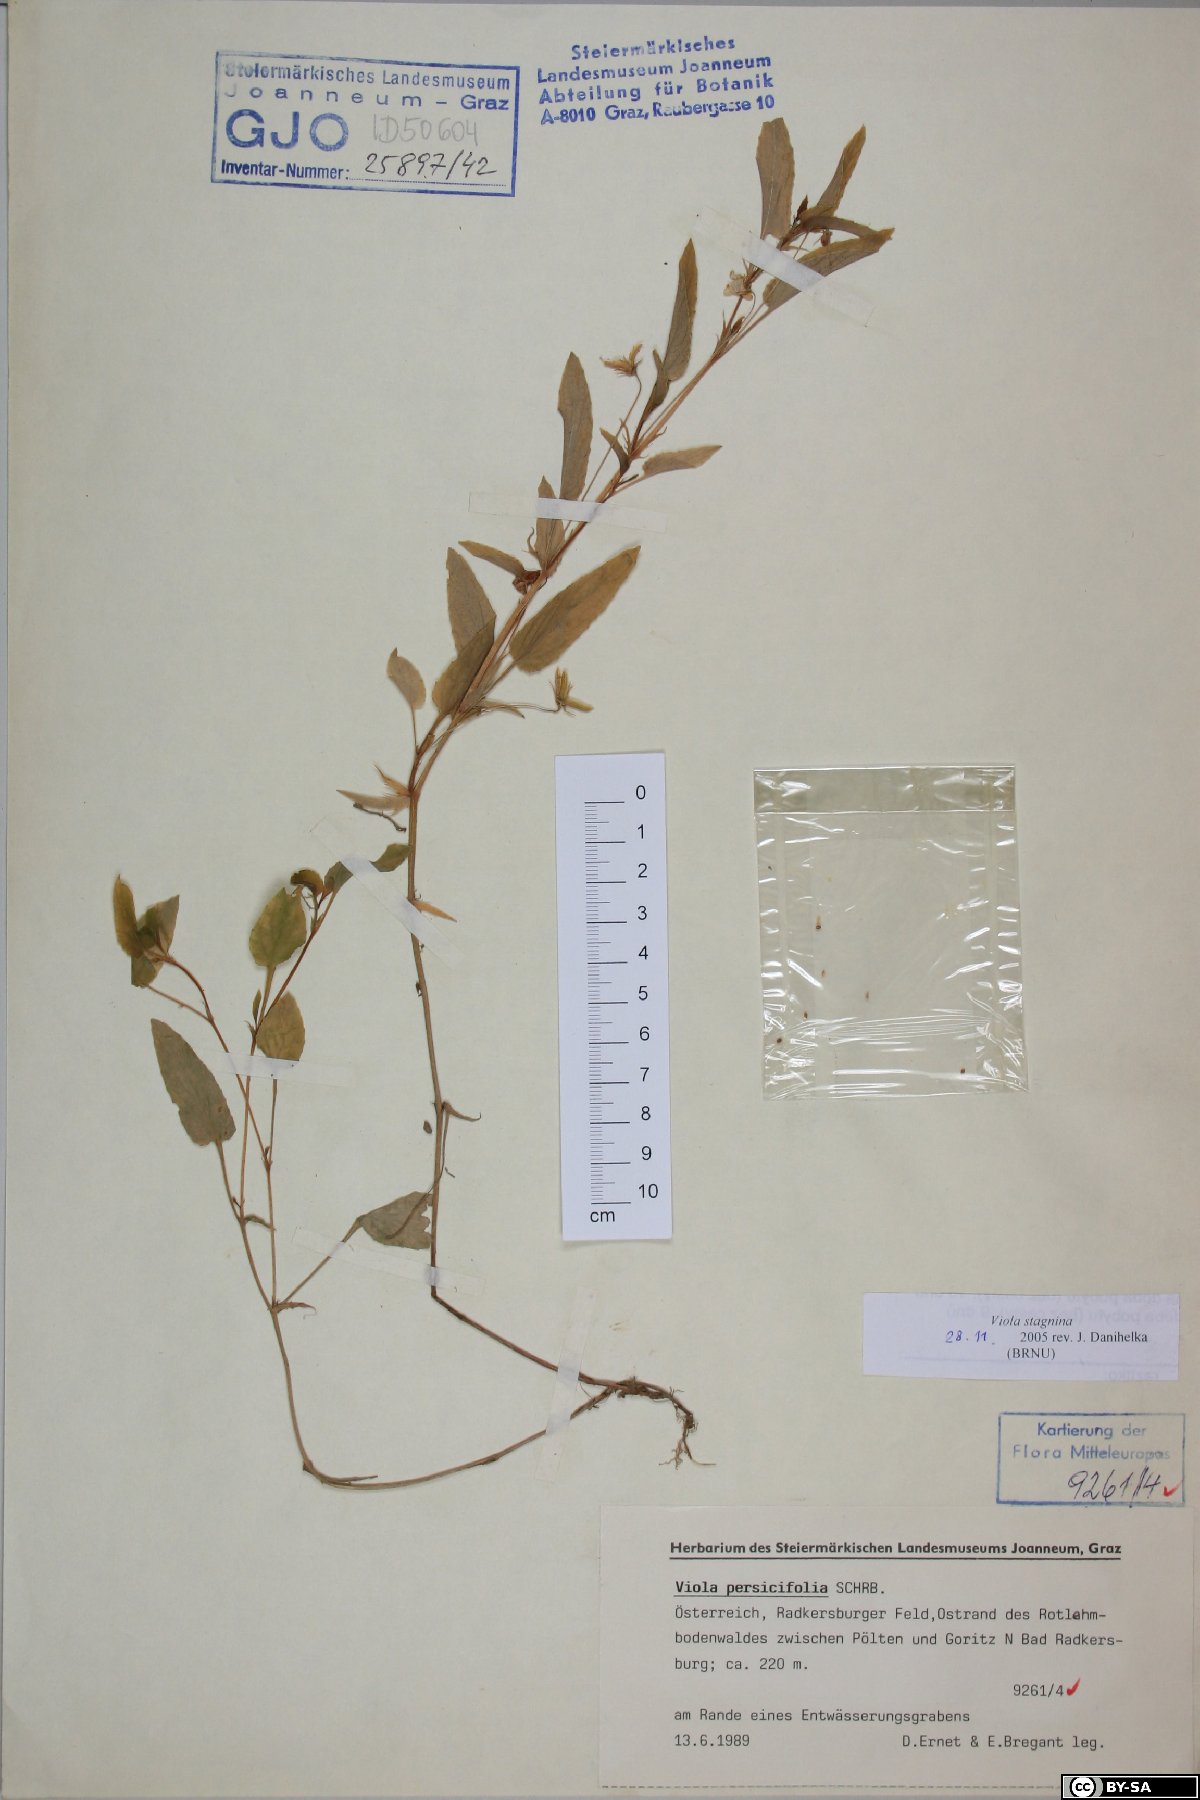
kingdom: Plantae
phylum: Tracheophyta
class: Magnoliopsida
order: Malpighiales
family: Violaceae
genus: Viola
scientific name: Viola stagnina
